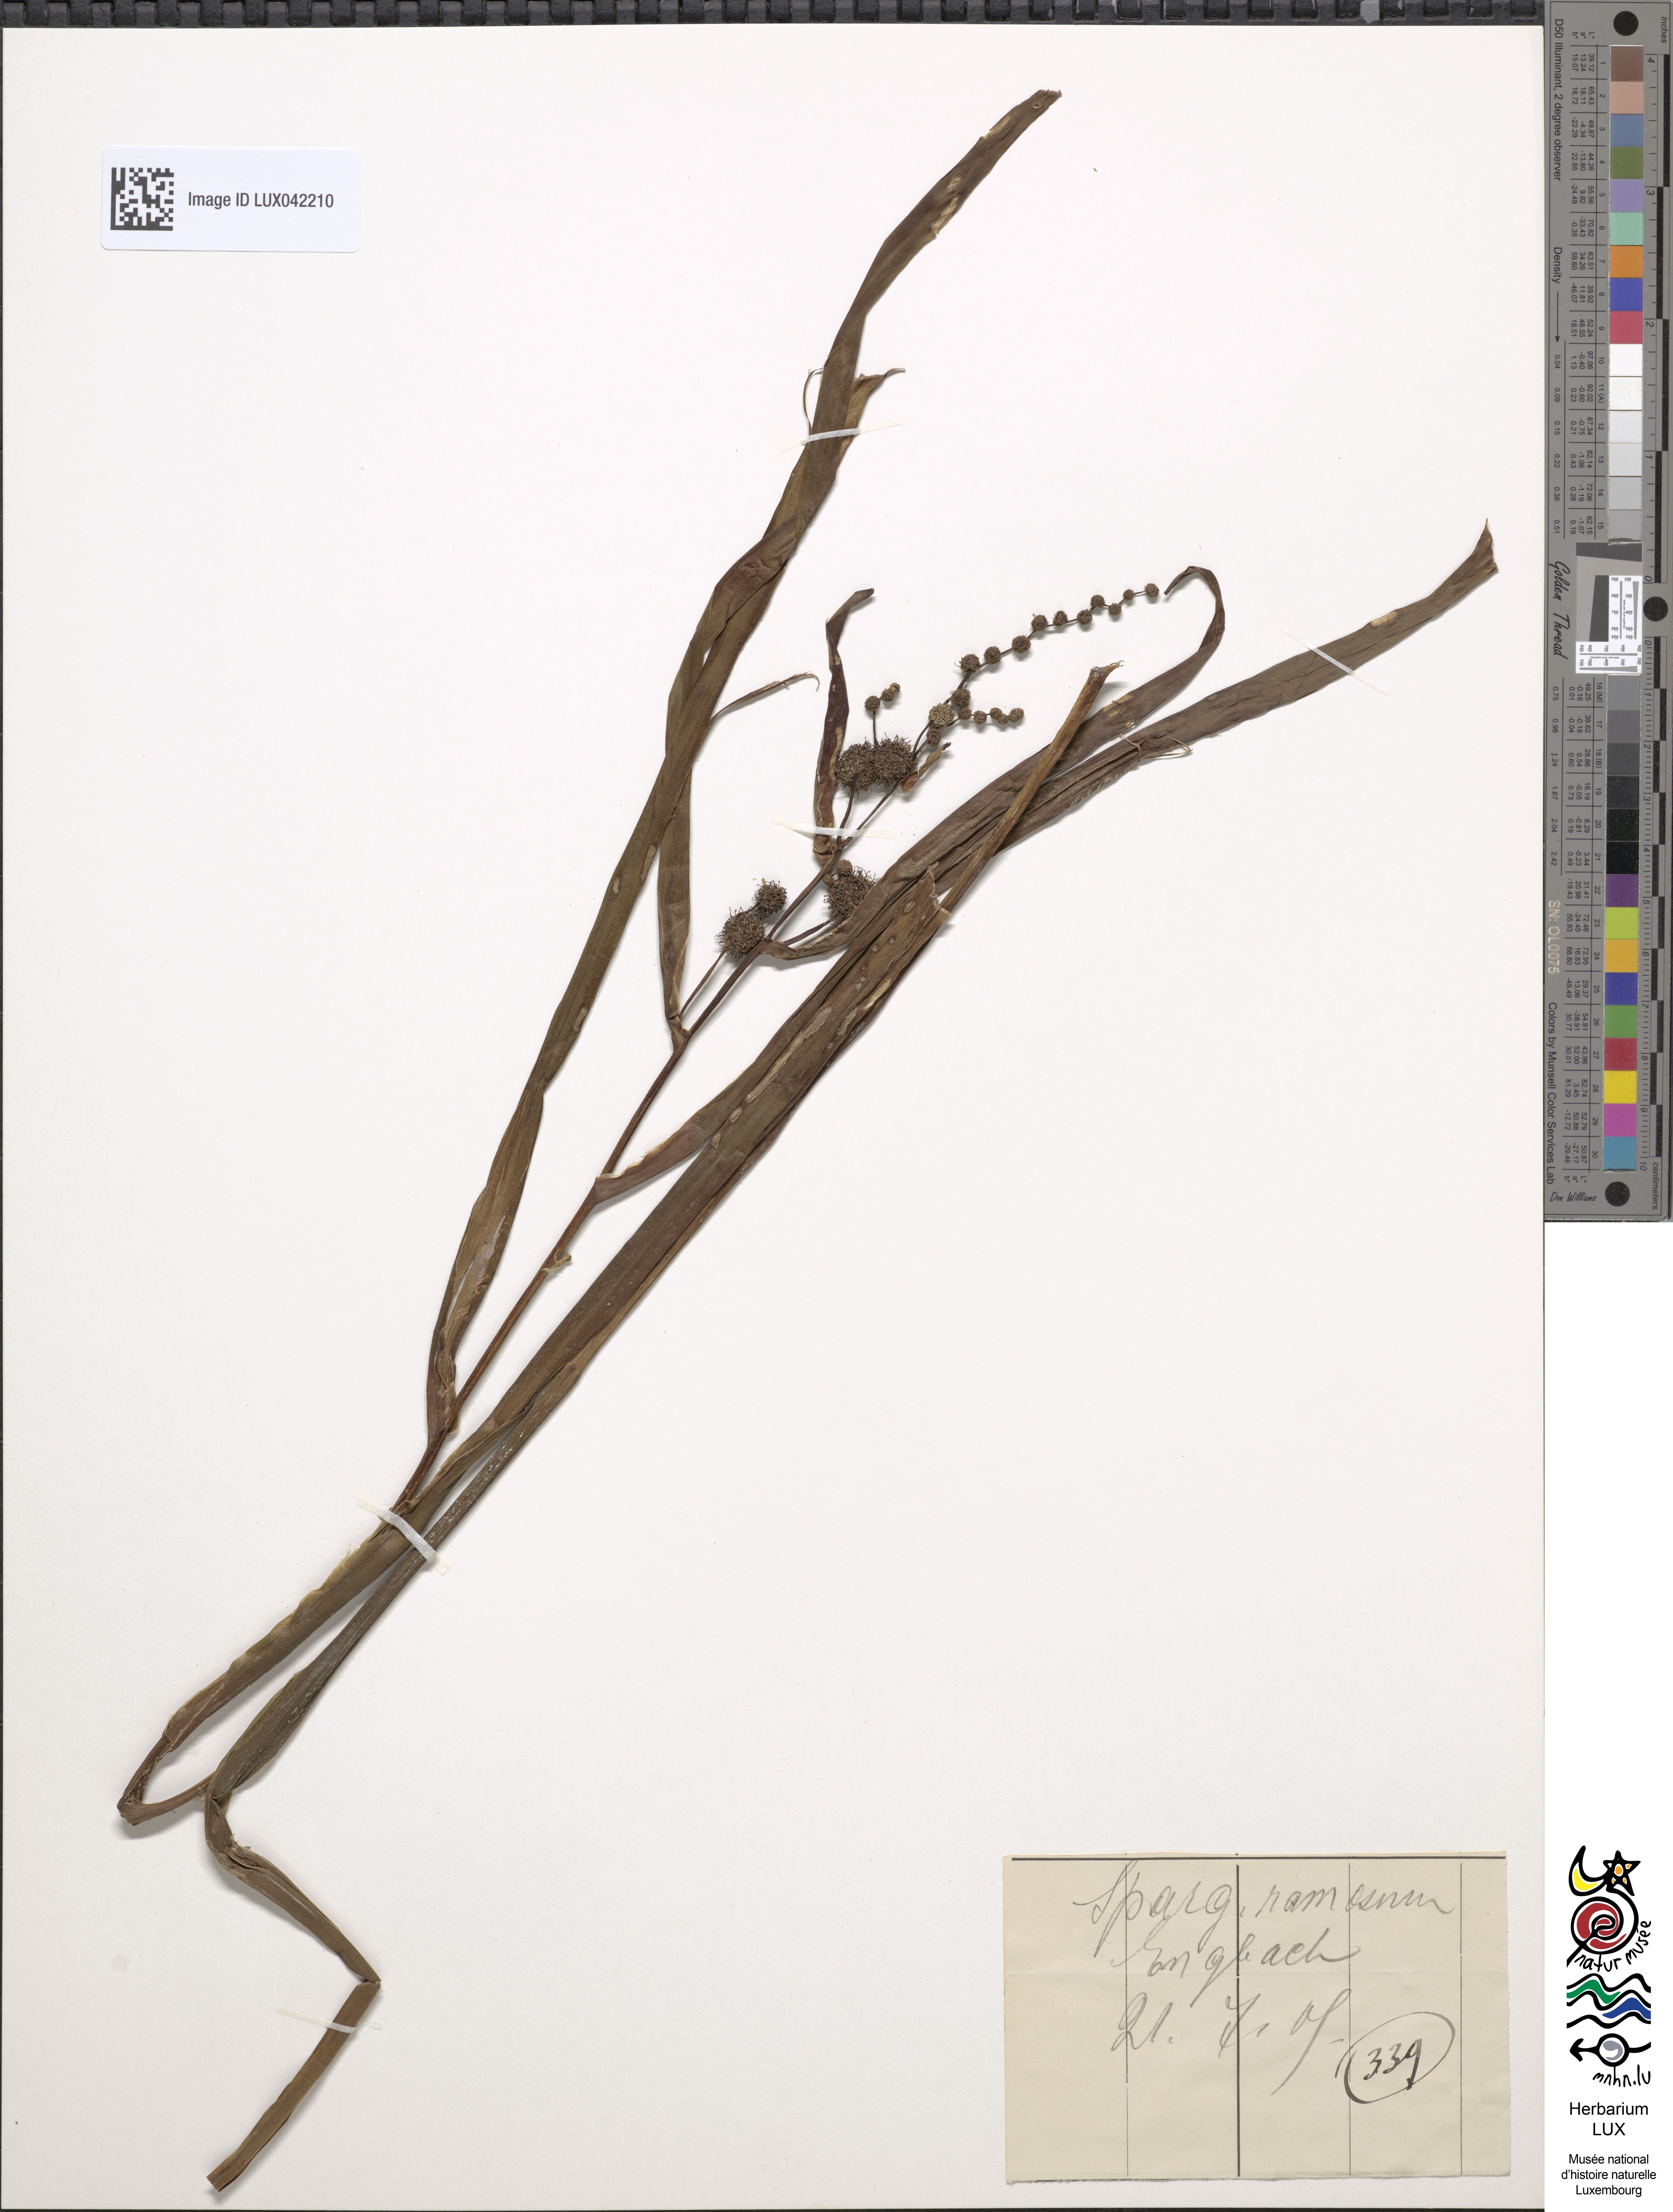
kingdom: Plantae
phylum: Tracheophyta
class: Liliopsida
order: Poales
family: Typhaceae
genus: Sparganium
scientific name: Sparganium erectum
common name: Branched bur-reed
